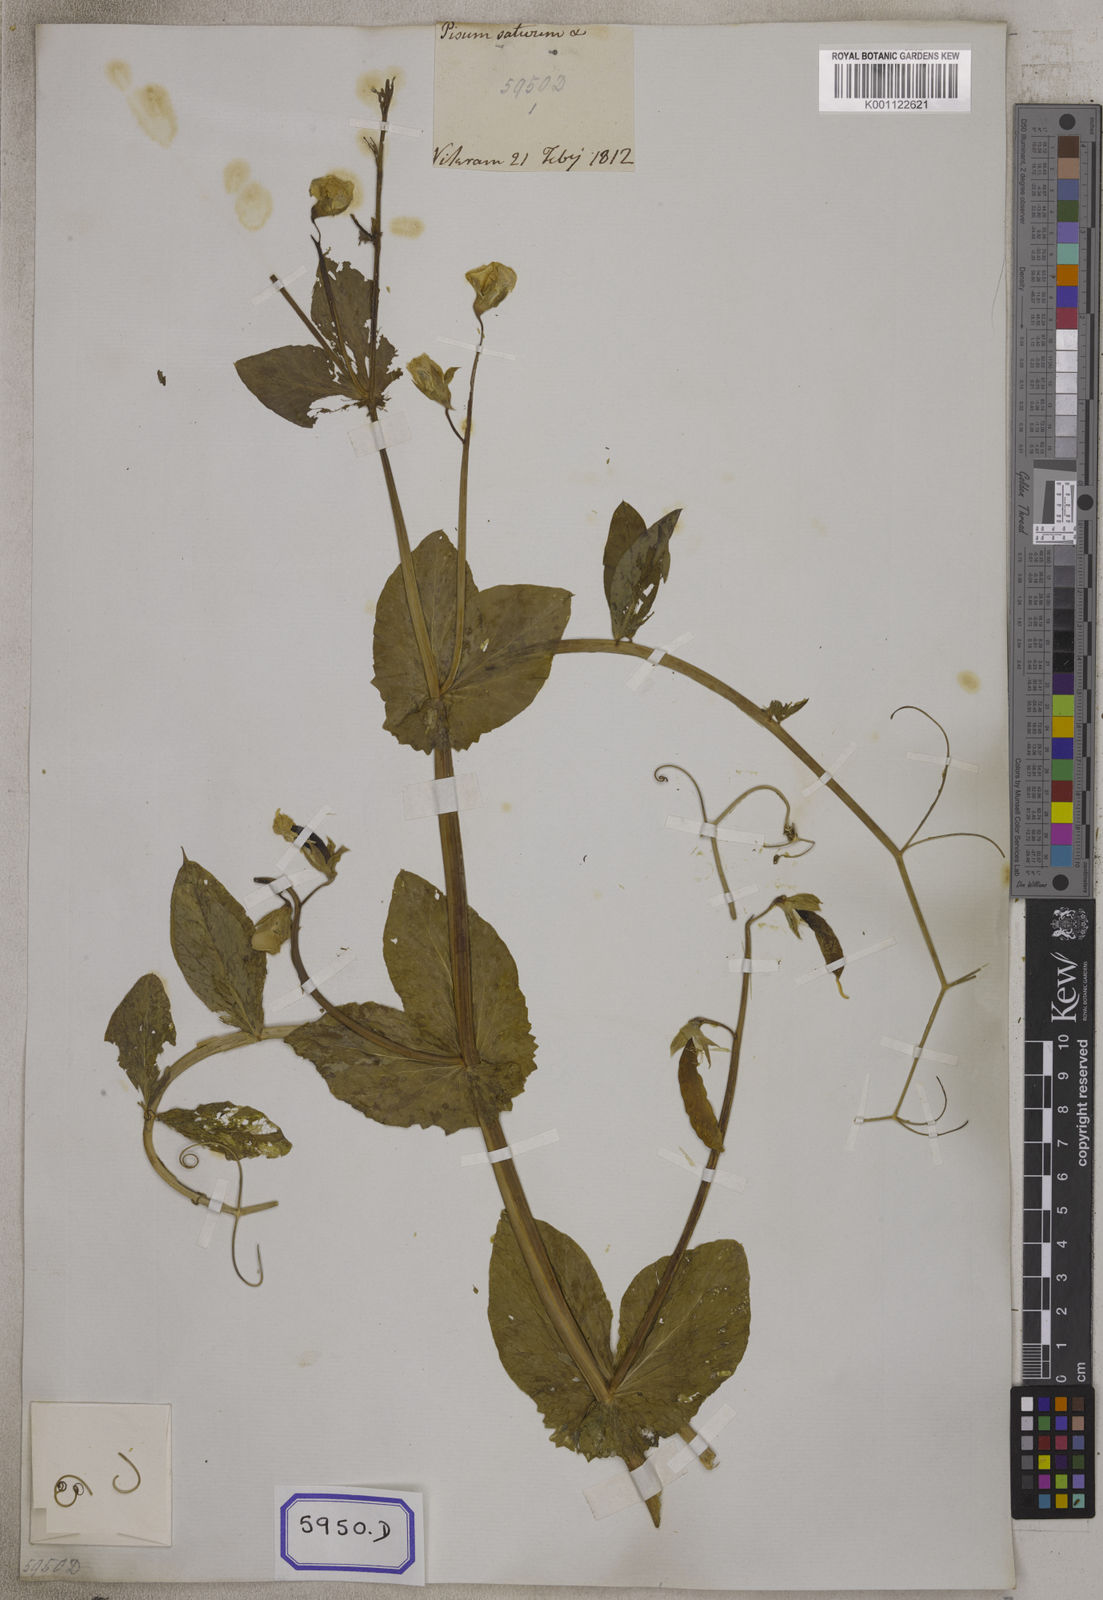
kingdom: Plantae
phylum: Tracheophyta
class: Magnoliopsida
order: Fabales
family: Fabaceae
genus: Lathyrus
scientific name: Lathyrus oleraceus
